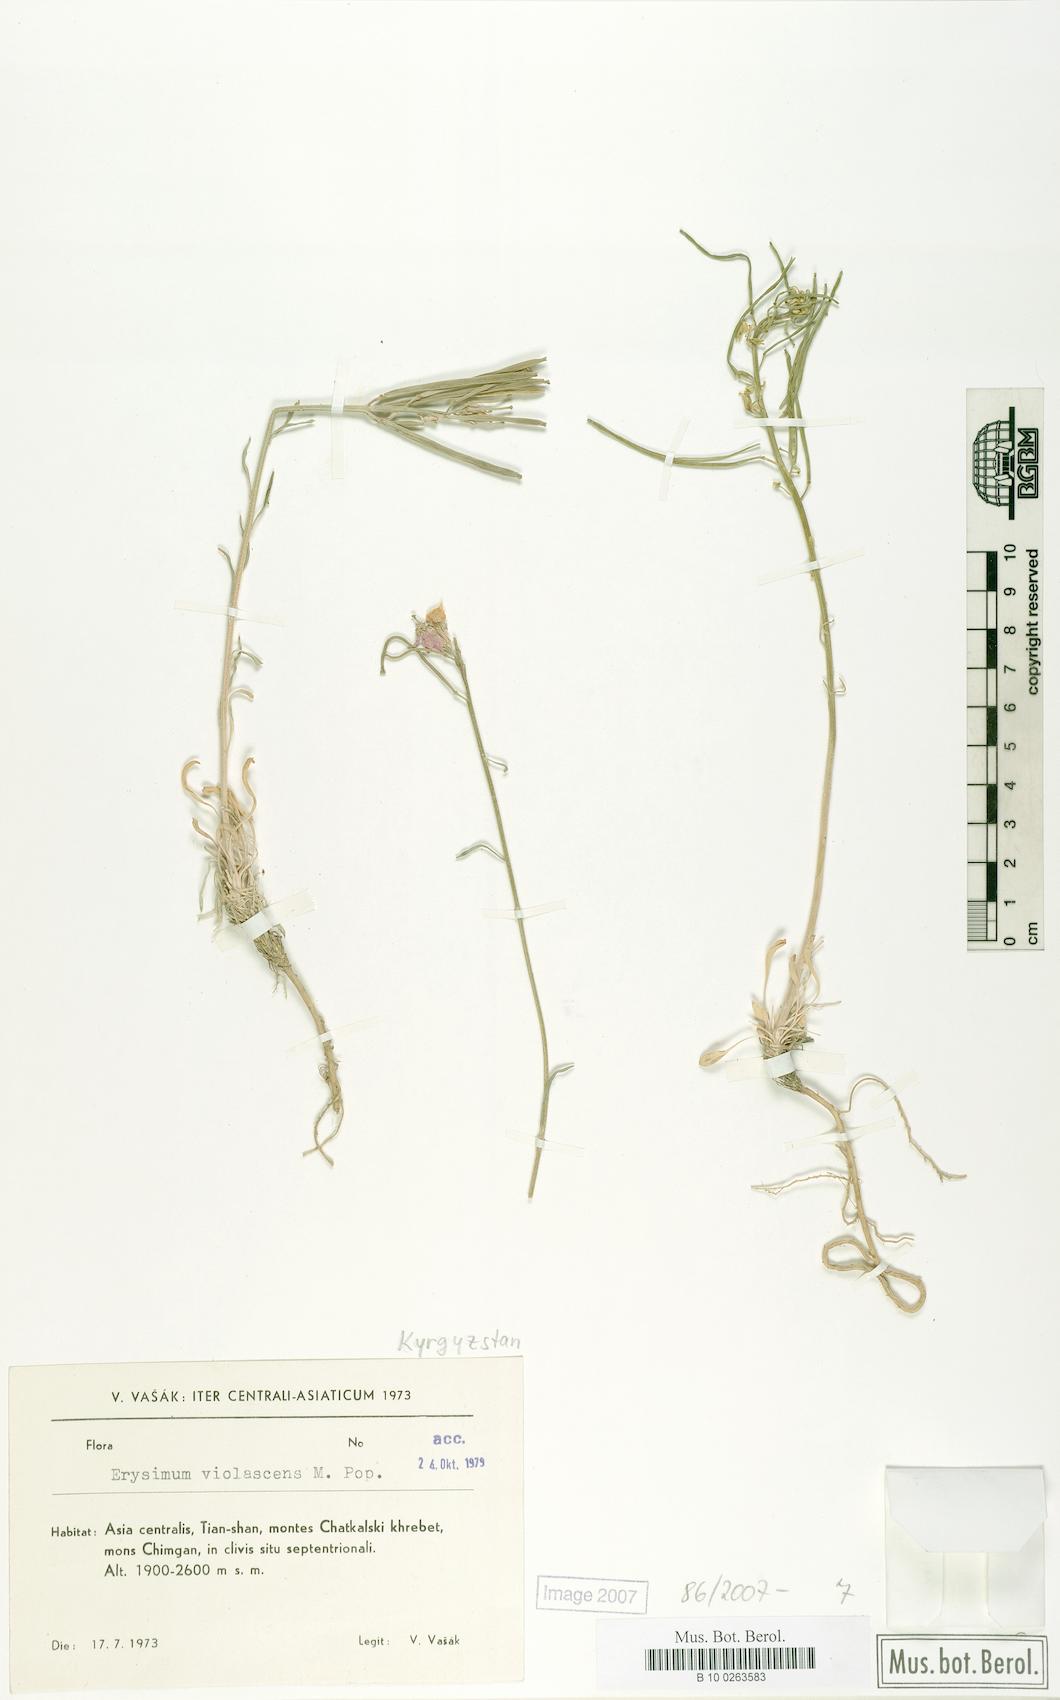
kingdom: Plantae
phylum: Tracheophyta
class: Magnoliopsida
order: Brassicales
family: Brassicaceae
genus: Erysimum
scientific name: Erysimum cyaneum
